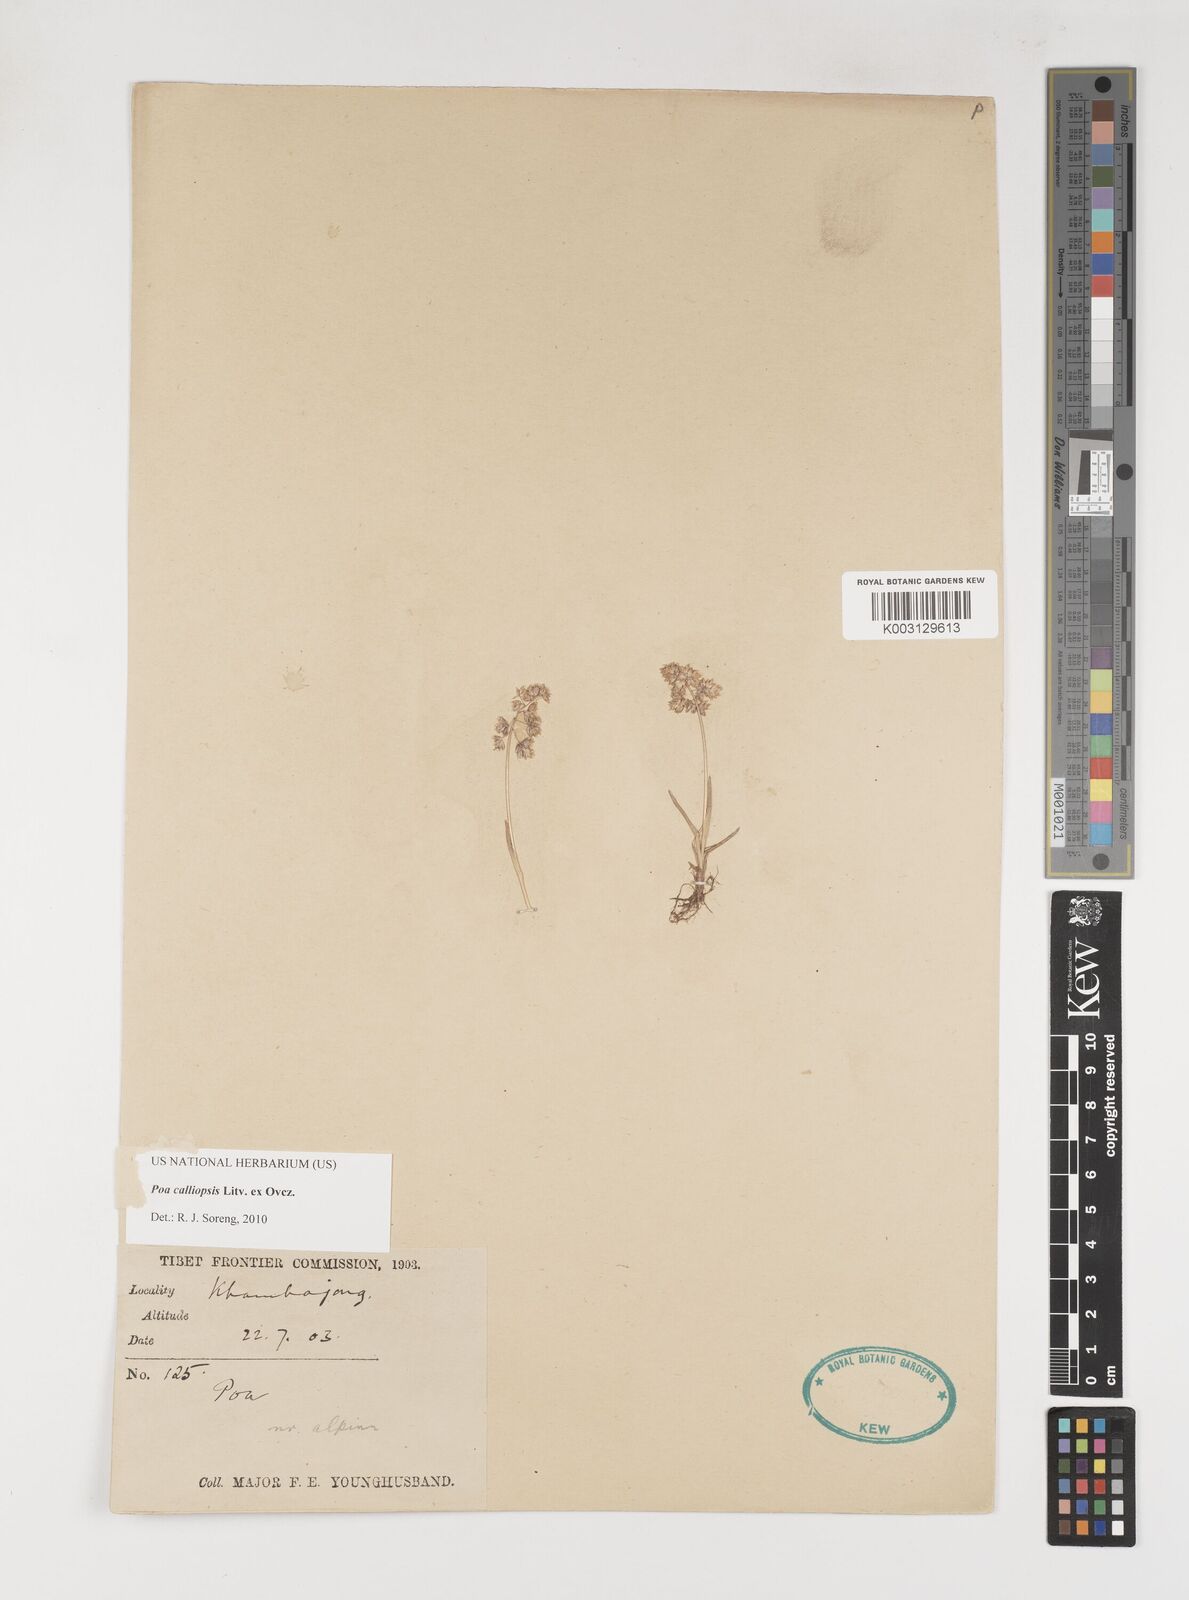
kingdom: Plantae
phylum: Tracheophyta
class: Liliopsida
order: Poales
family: Poaceae
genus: Poa
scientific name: Poa calliopsis
